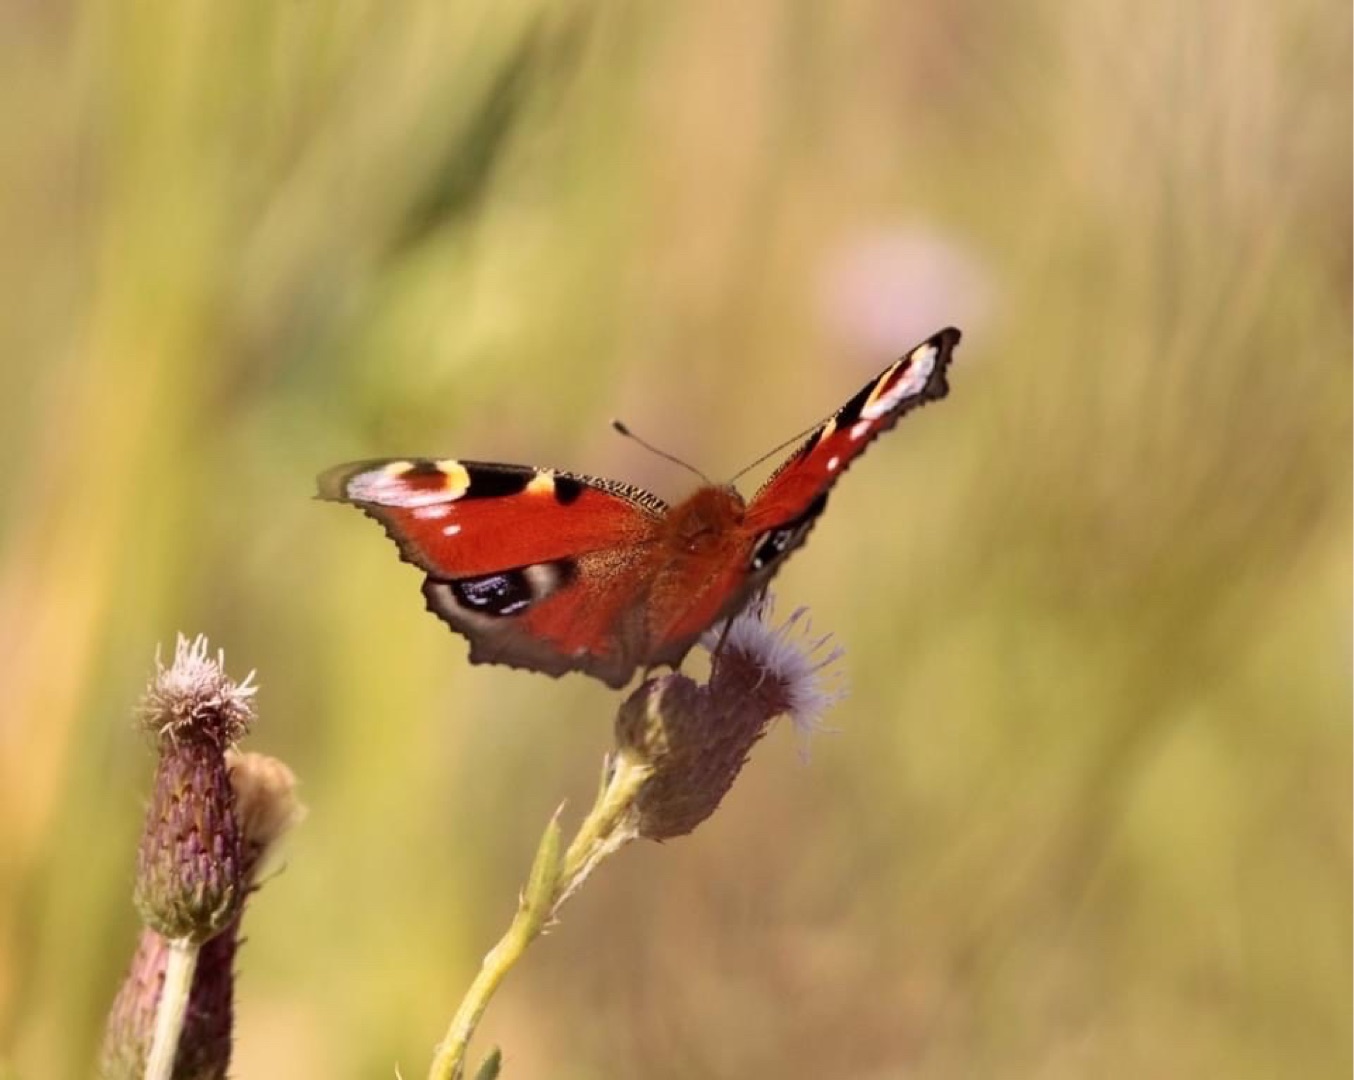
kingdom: Animalia
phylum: Arthropoda
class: Insecta
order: Lepidoptera
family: Nymphalidae
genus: Aglais
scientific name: Aglais io
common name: Dagpåfugleøje
